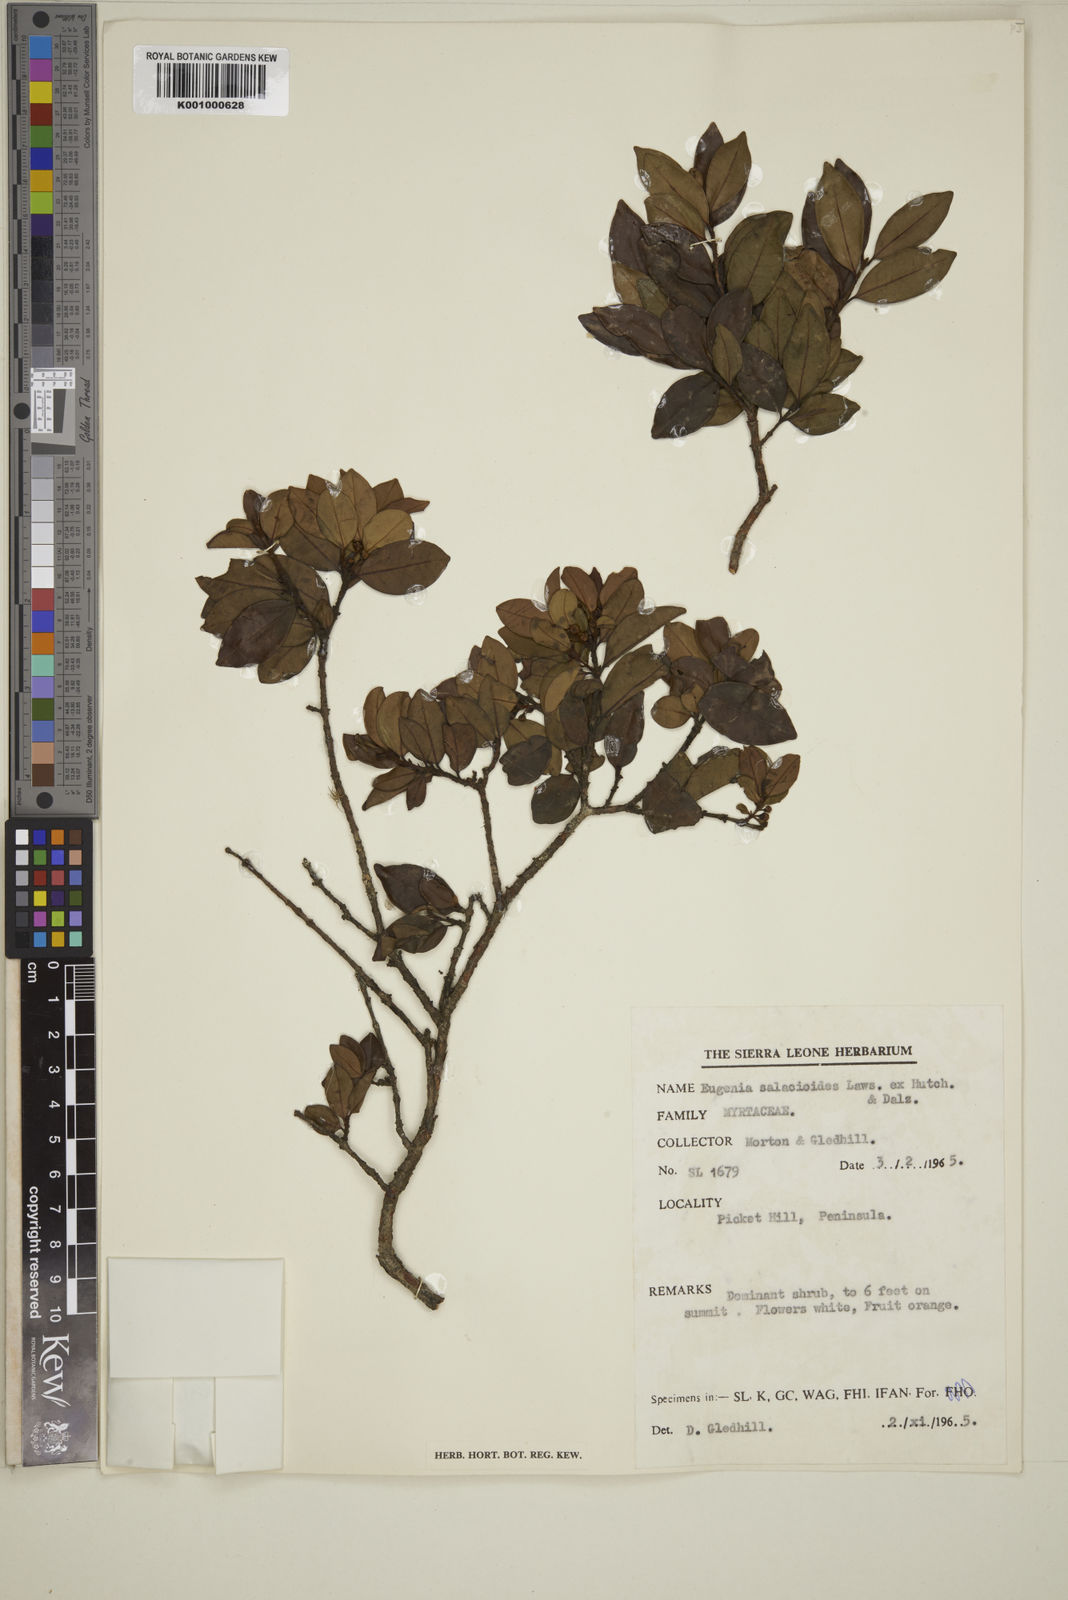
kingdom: Plantae
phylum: Tracheophyta
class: Magnoliopsida
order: Myrtales
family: Myrtaceae
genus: Eugenia
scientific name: Eugenia leonensis
